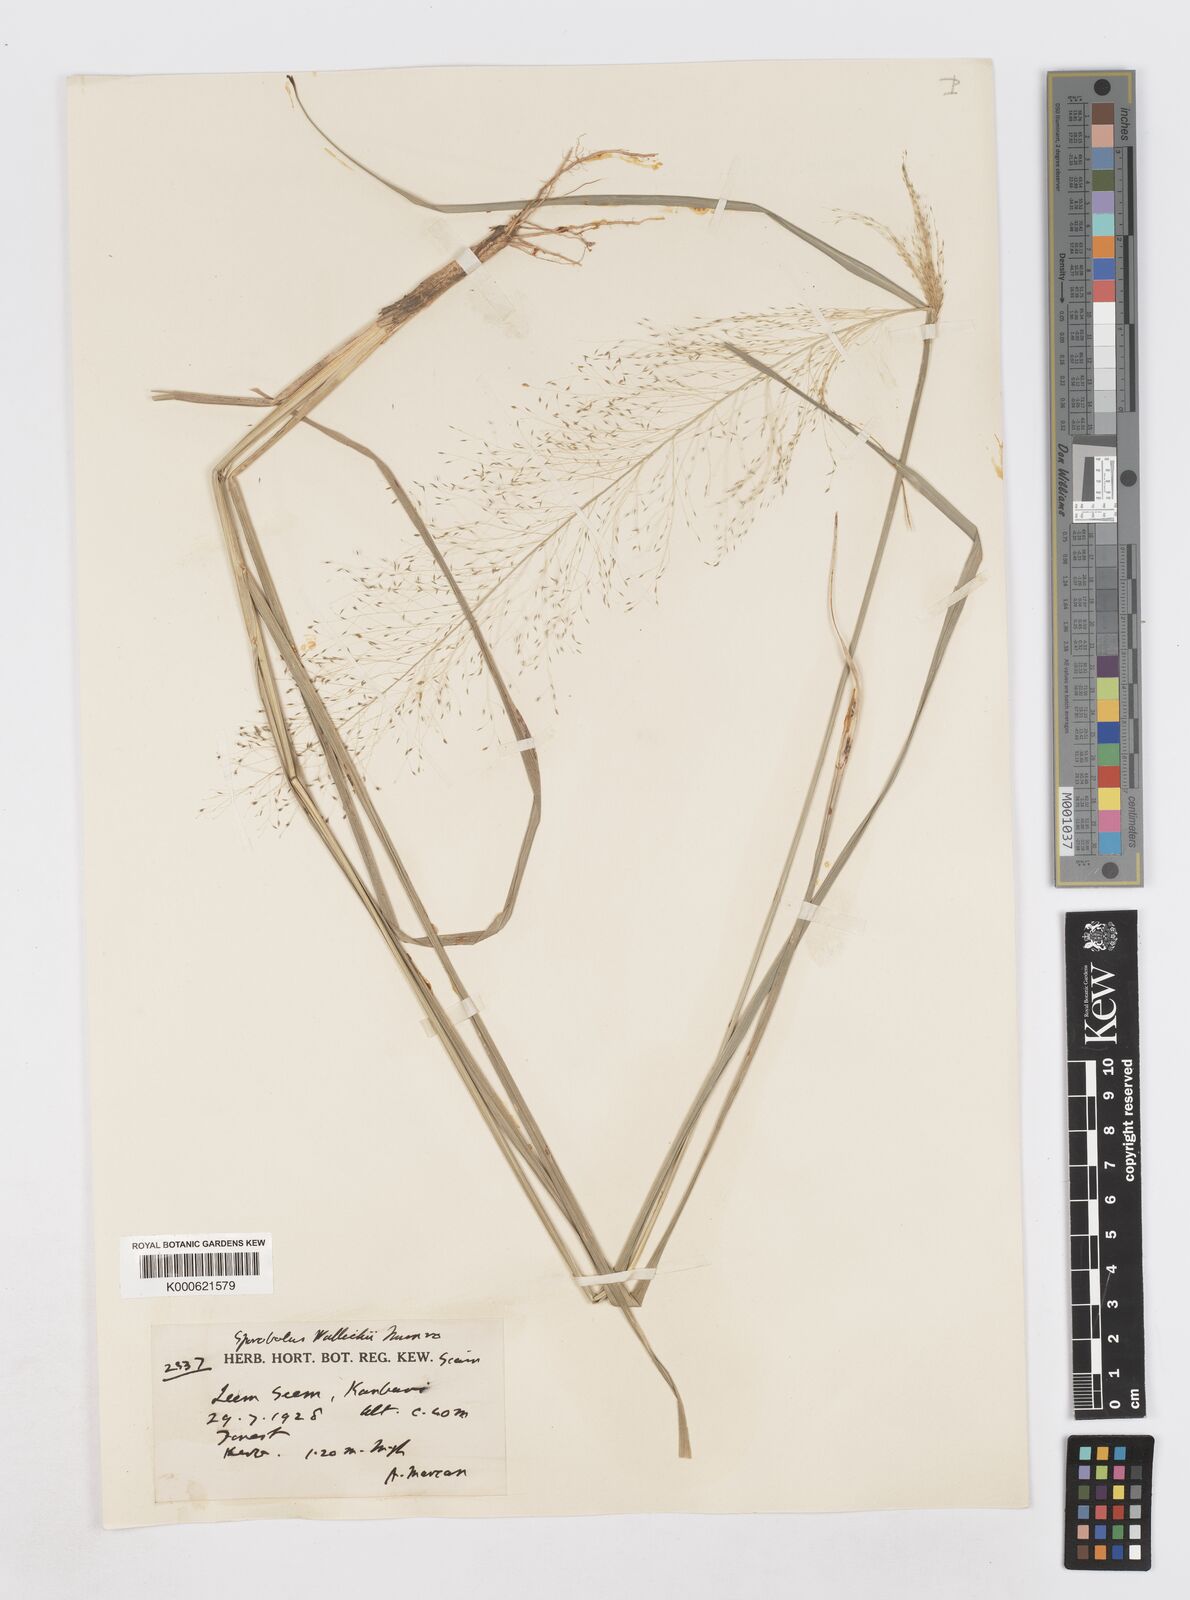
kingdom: Plantae
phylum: Tracheophyta
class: Liliopsida
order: Poales
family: Poaceae
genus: Sporobolus
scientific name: Sporobolus
